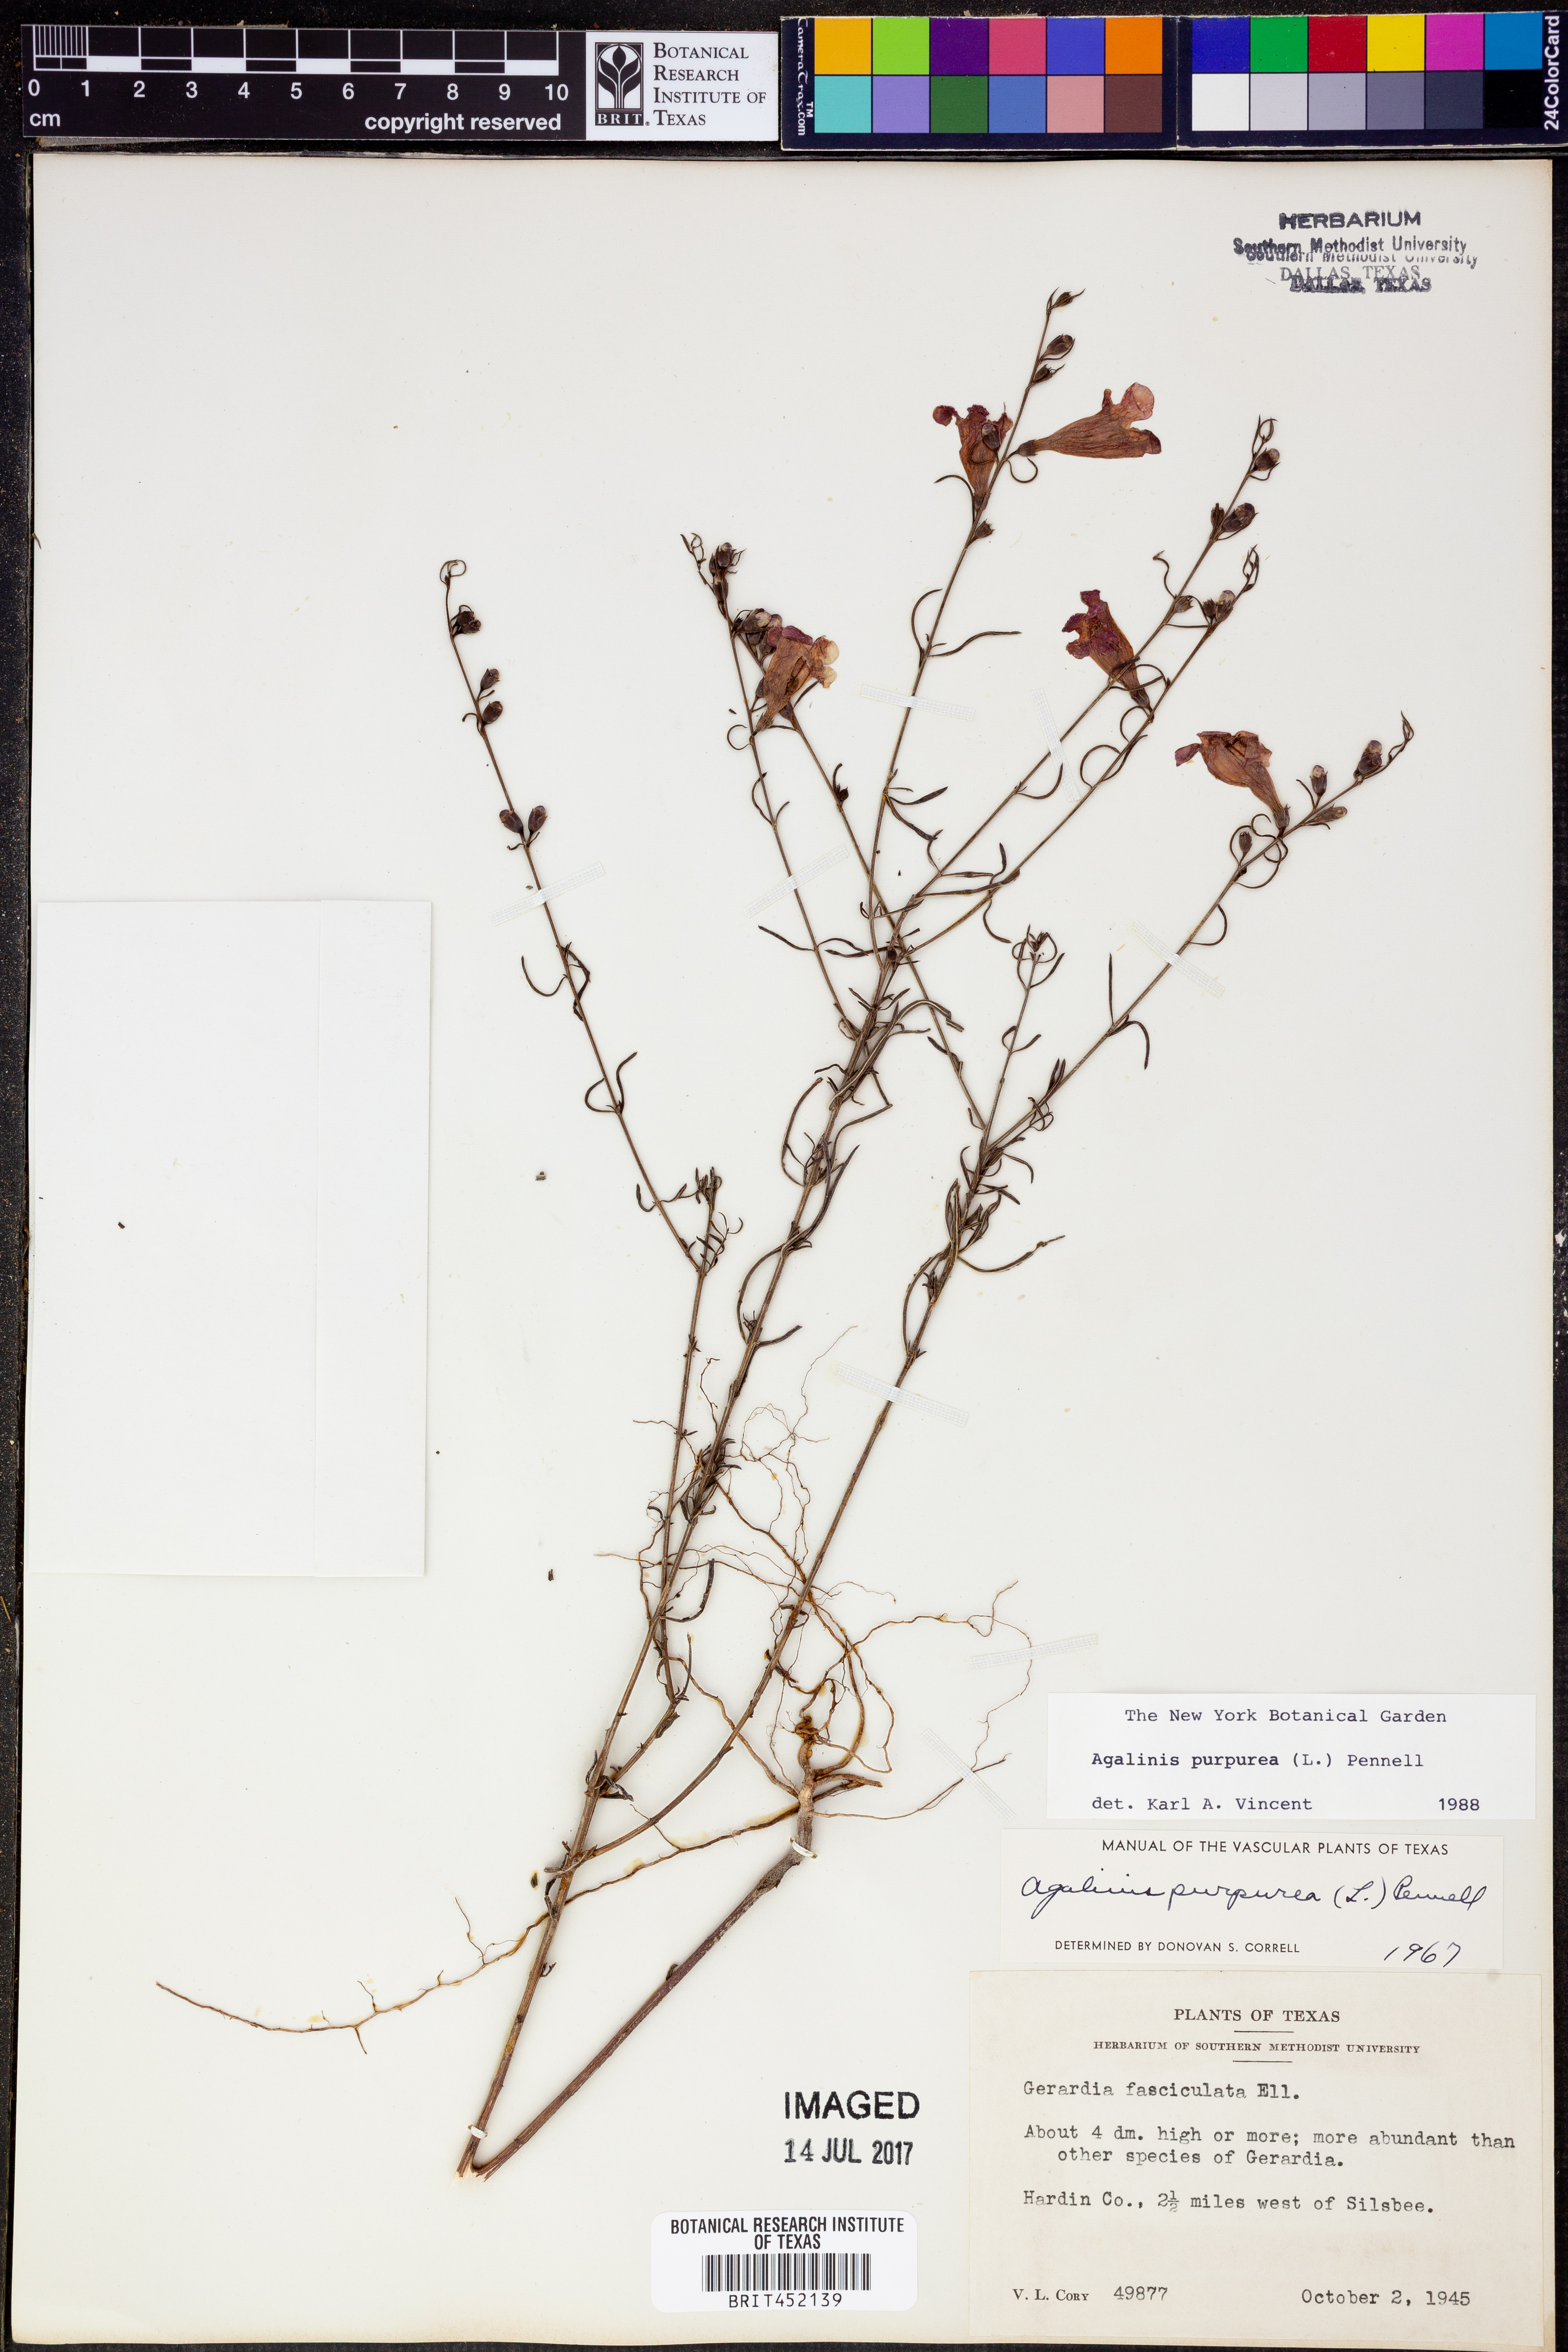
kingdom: Plantae
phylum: Tracheophyta
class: Magnoliopsida
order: Lamiales
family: Orobanchaceae
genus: Agalinis
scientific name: Agalinis purpurea
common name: Purple false foxglove
